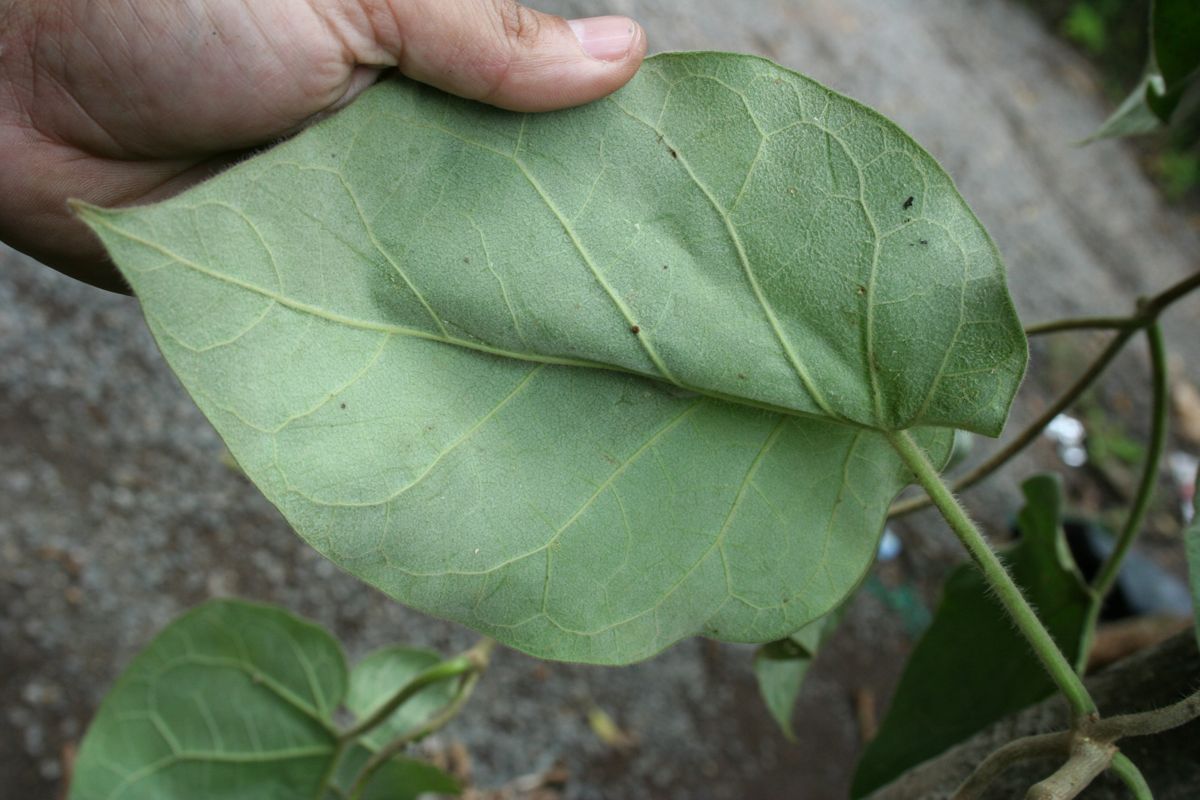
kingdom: Plantae
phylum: Tracheophyta
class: Magnoliopsida
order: Gentianales
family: Apocynaceae
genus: Ruehssia
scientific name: Ruehssia bourgaeana
